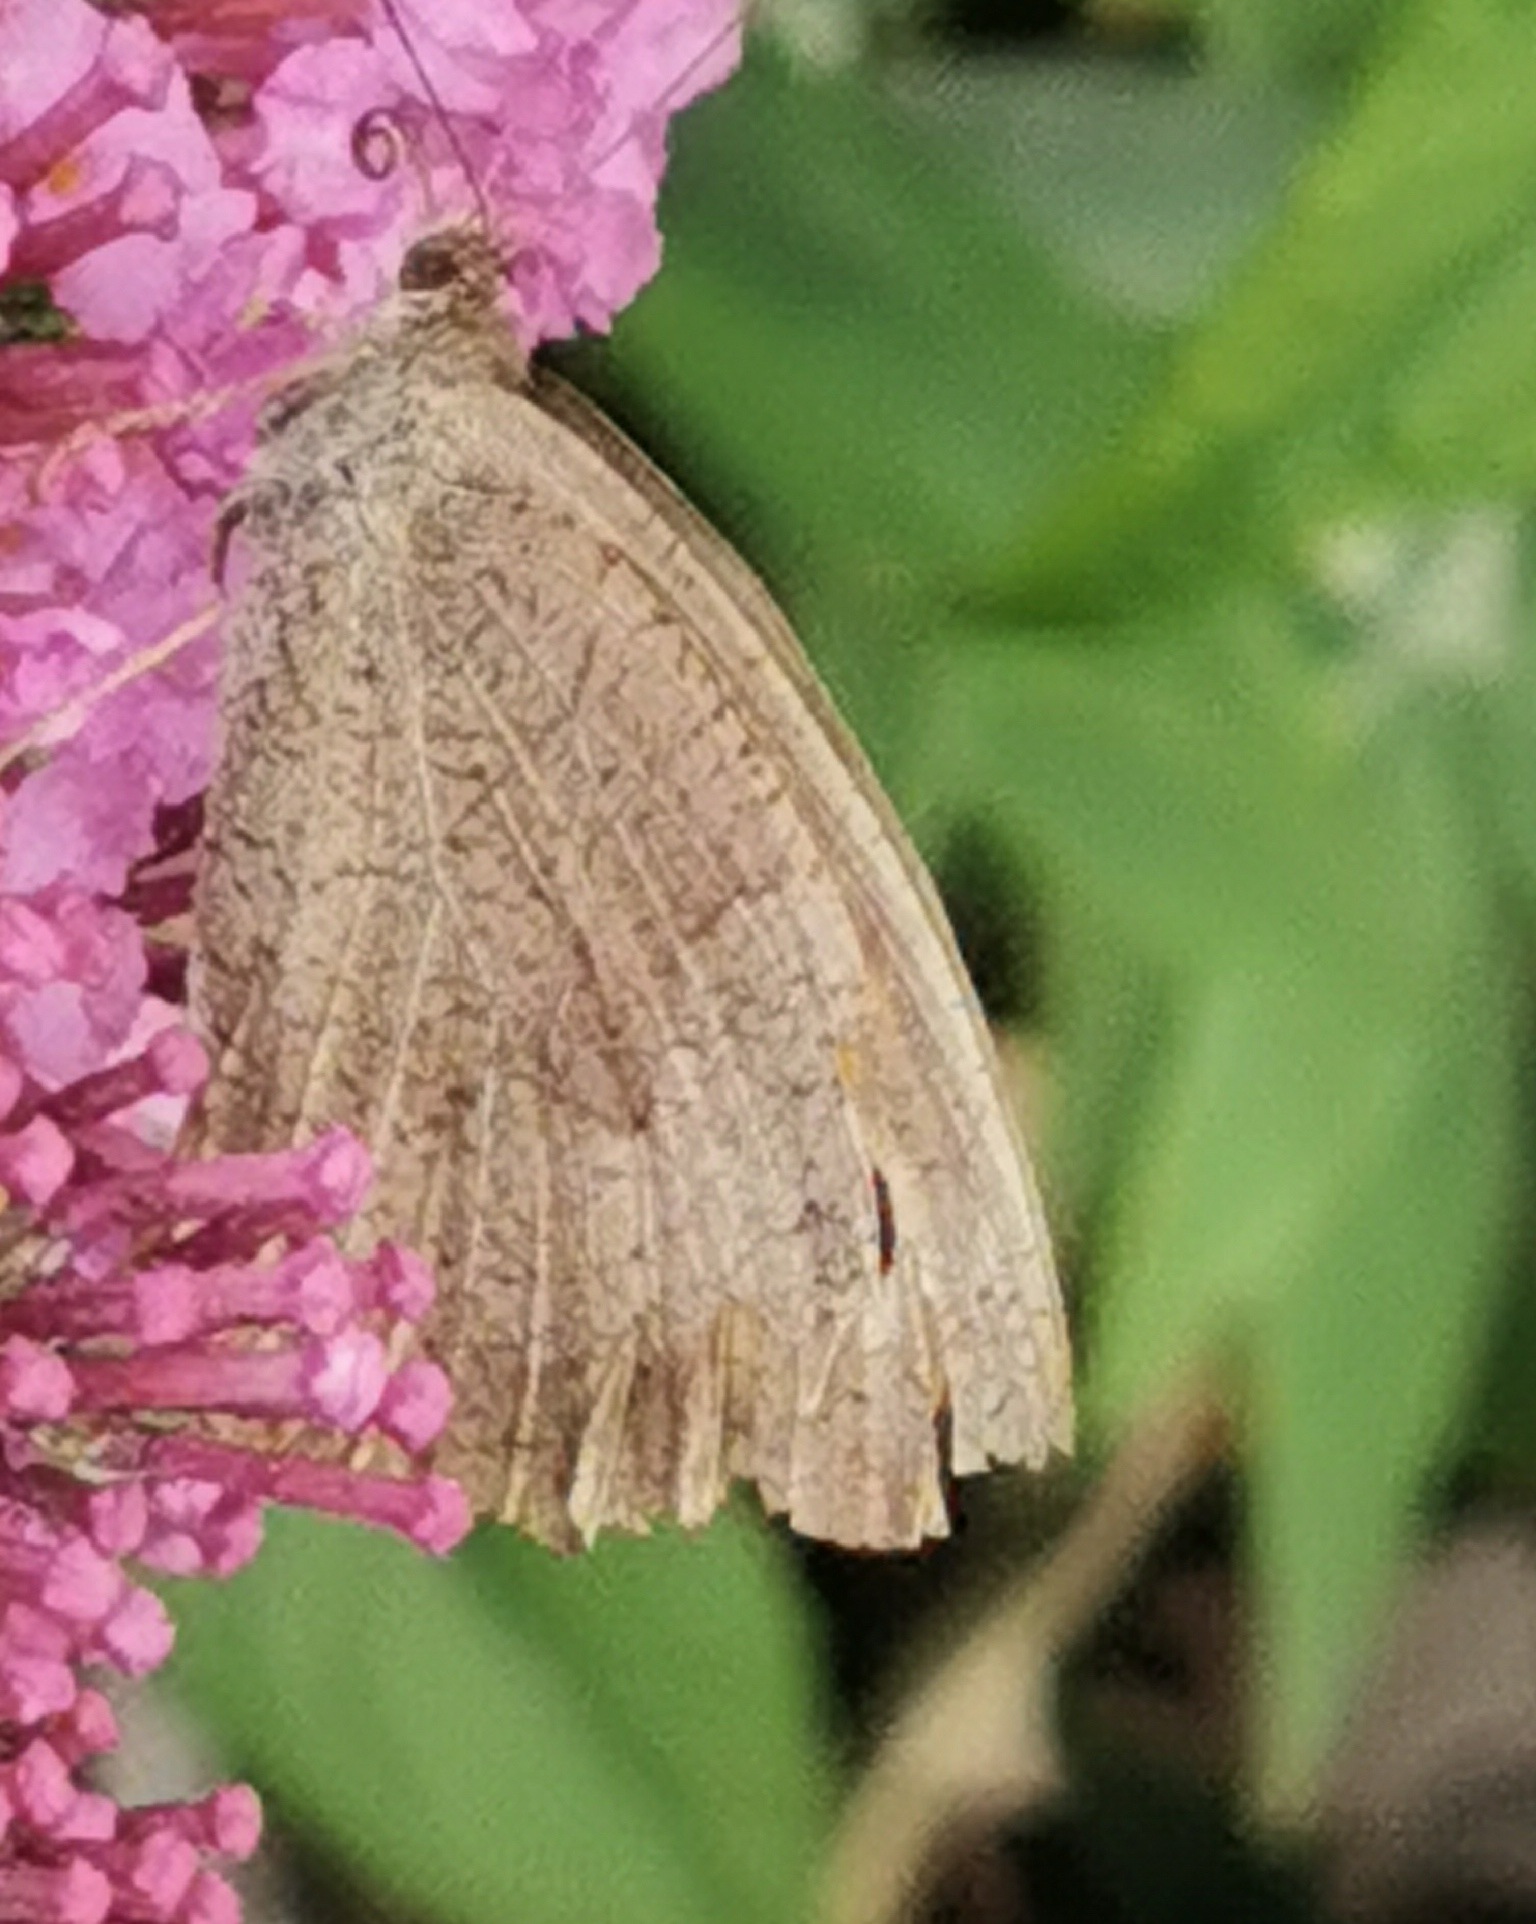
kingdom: Animalia
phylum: Arthropoda
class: Insecta
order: Lepidoptera
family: Nymphalidae
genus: Maniola
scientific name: Maniola jurtina
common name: Græsrandøje
